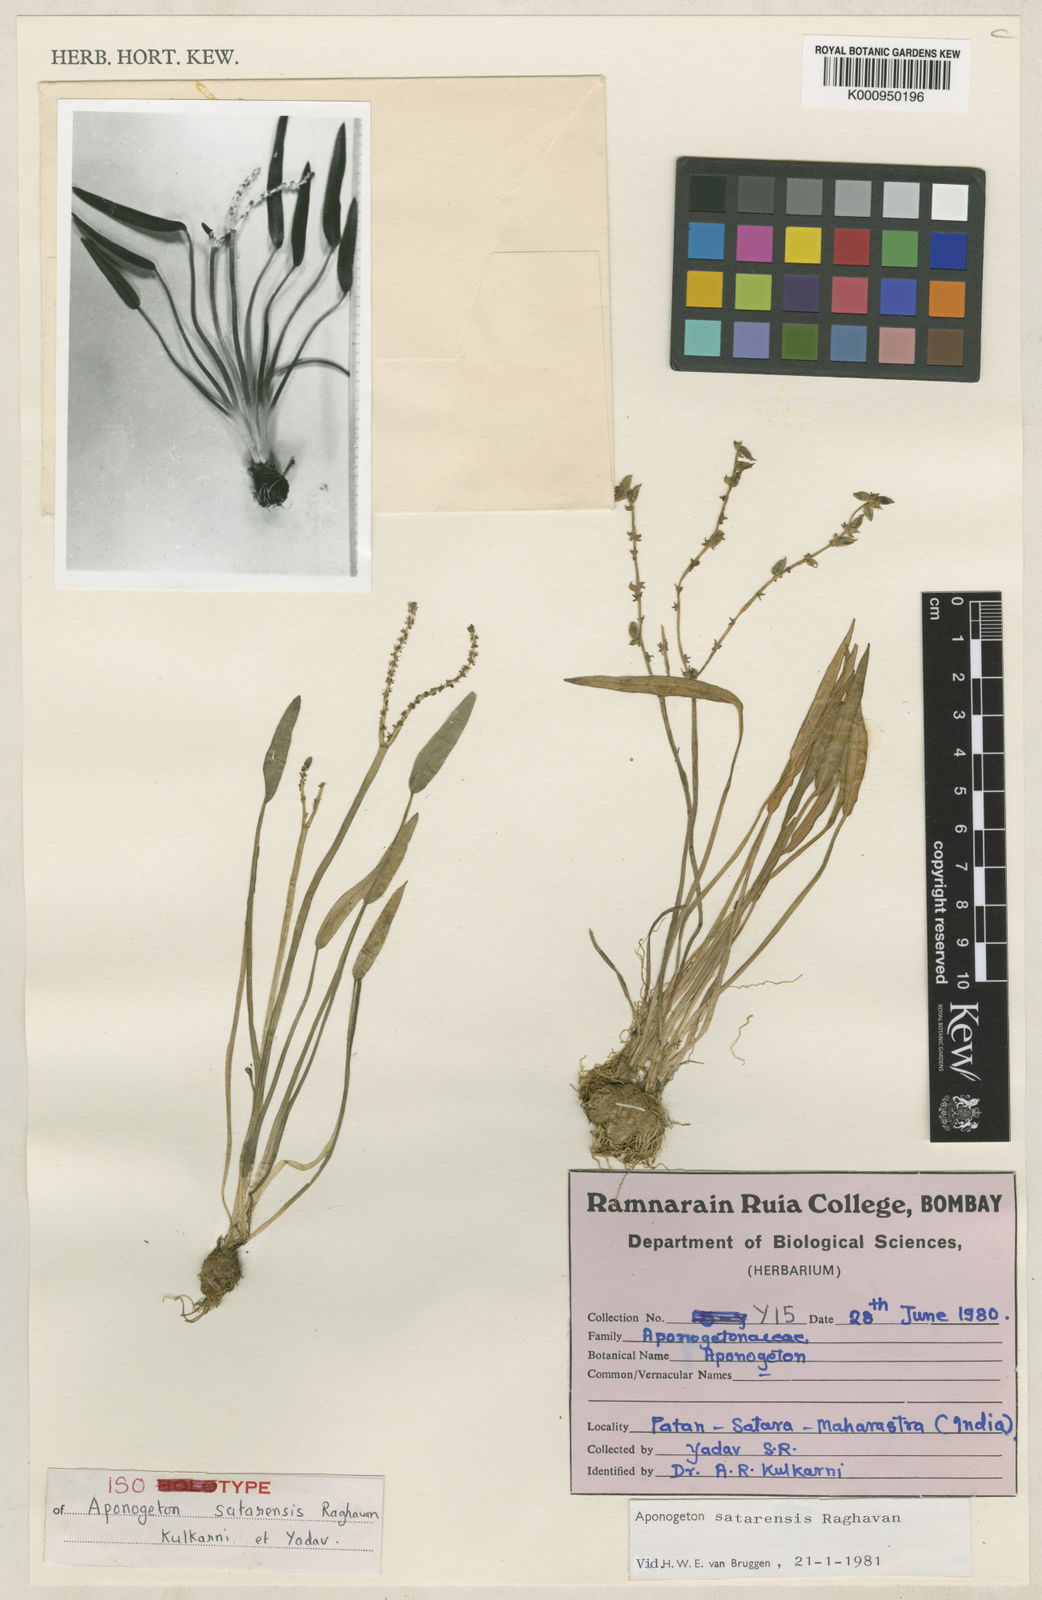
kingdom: Plantae
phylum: Tracheophyta
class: Liliopsida
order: Alismatales
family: Aponogetonaceae
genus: Aponogeton
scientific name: Aponogeton satarensis
